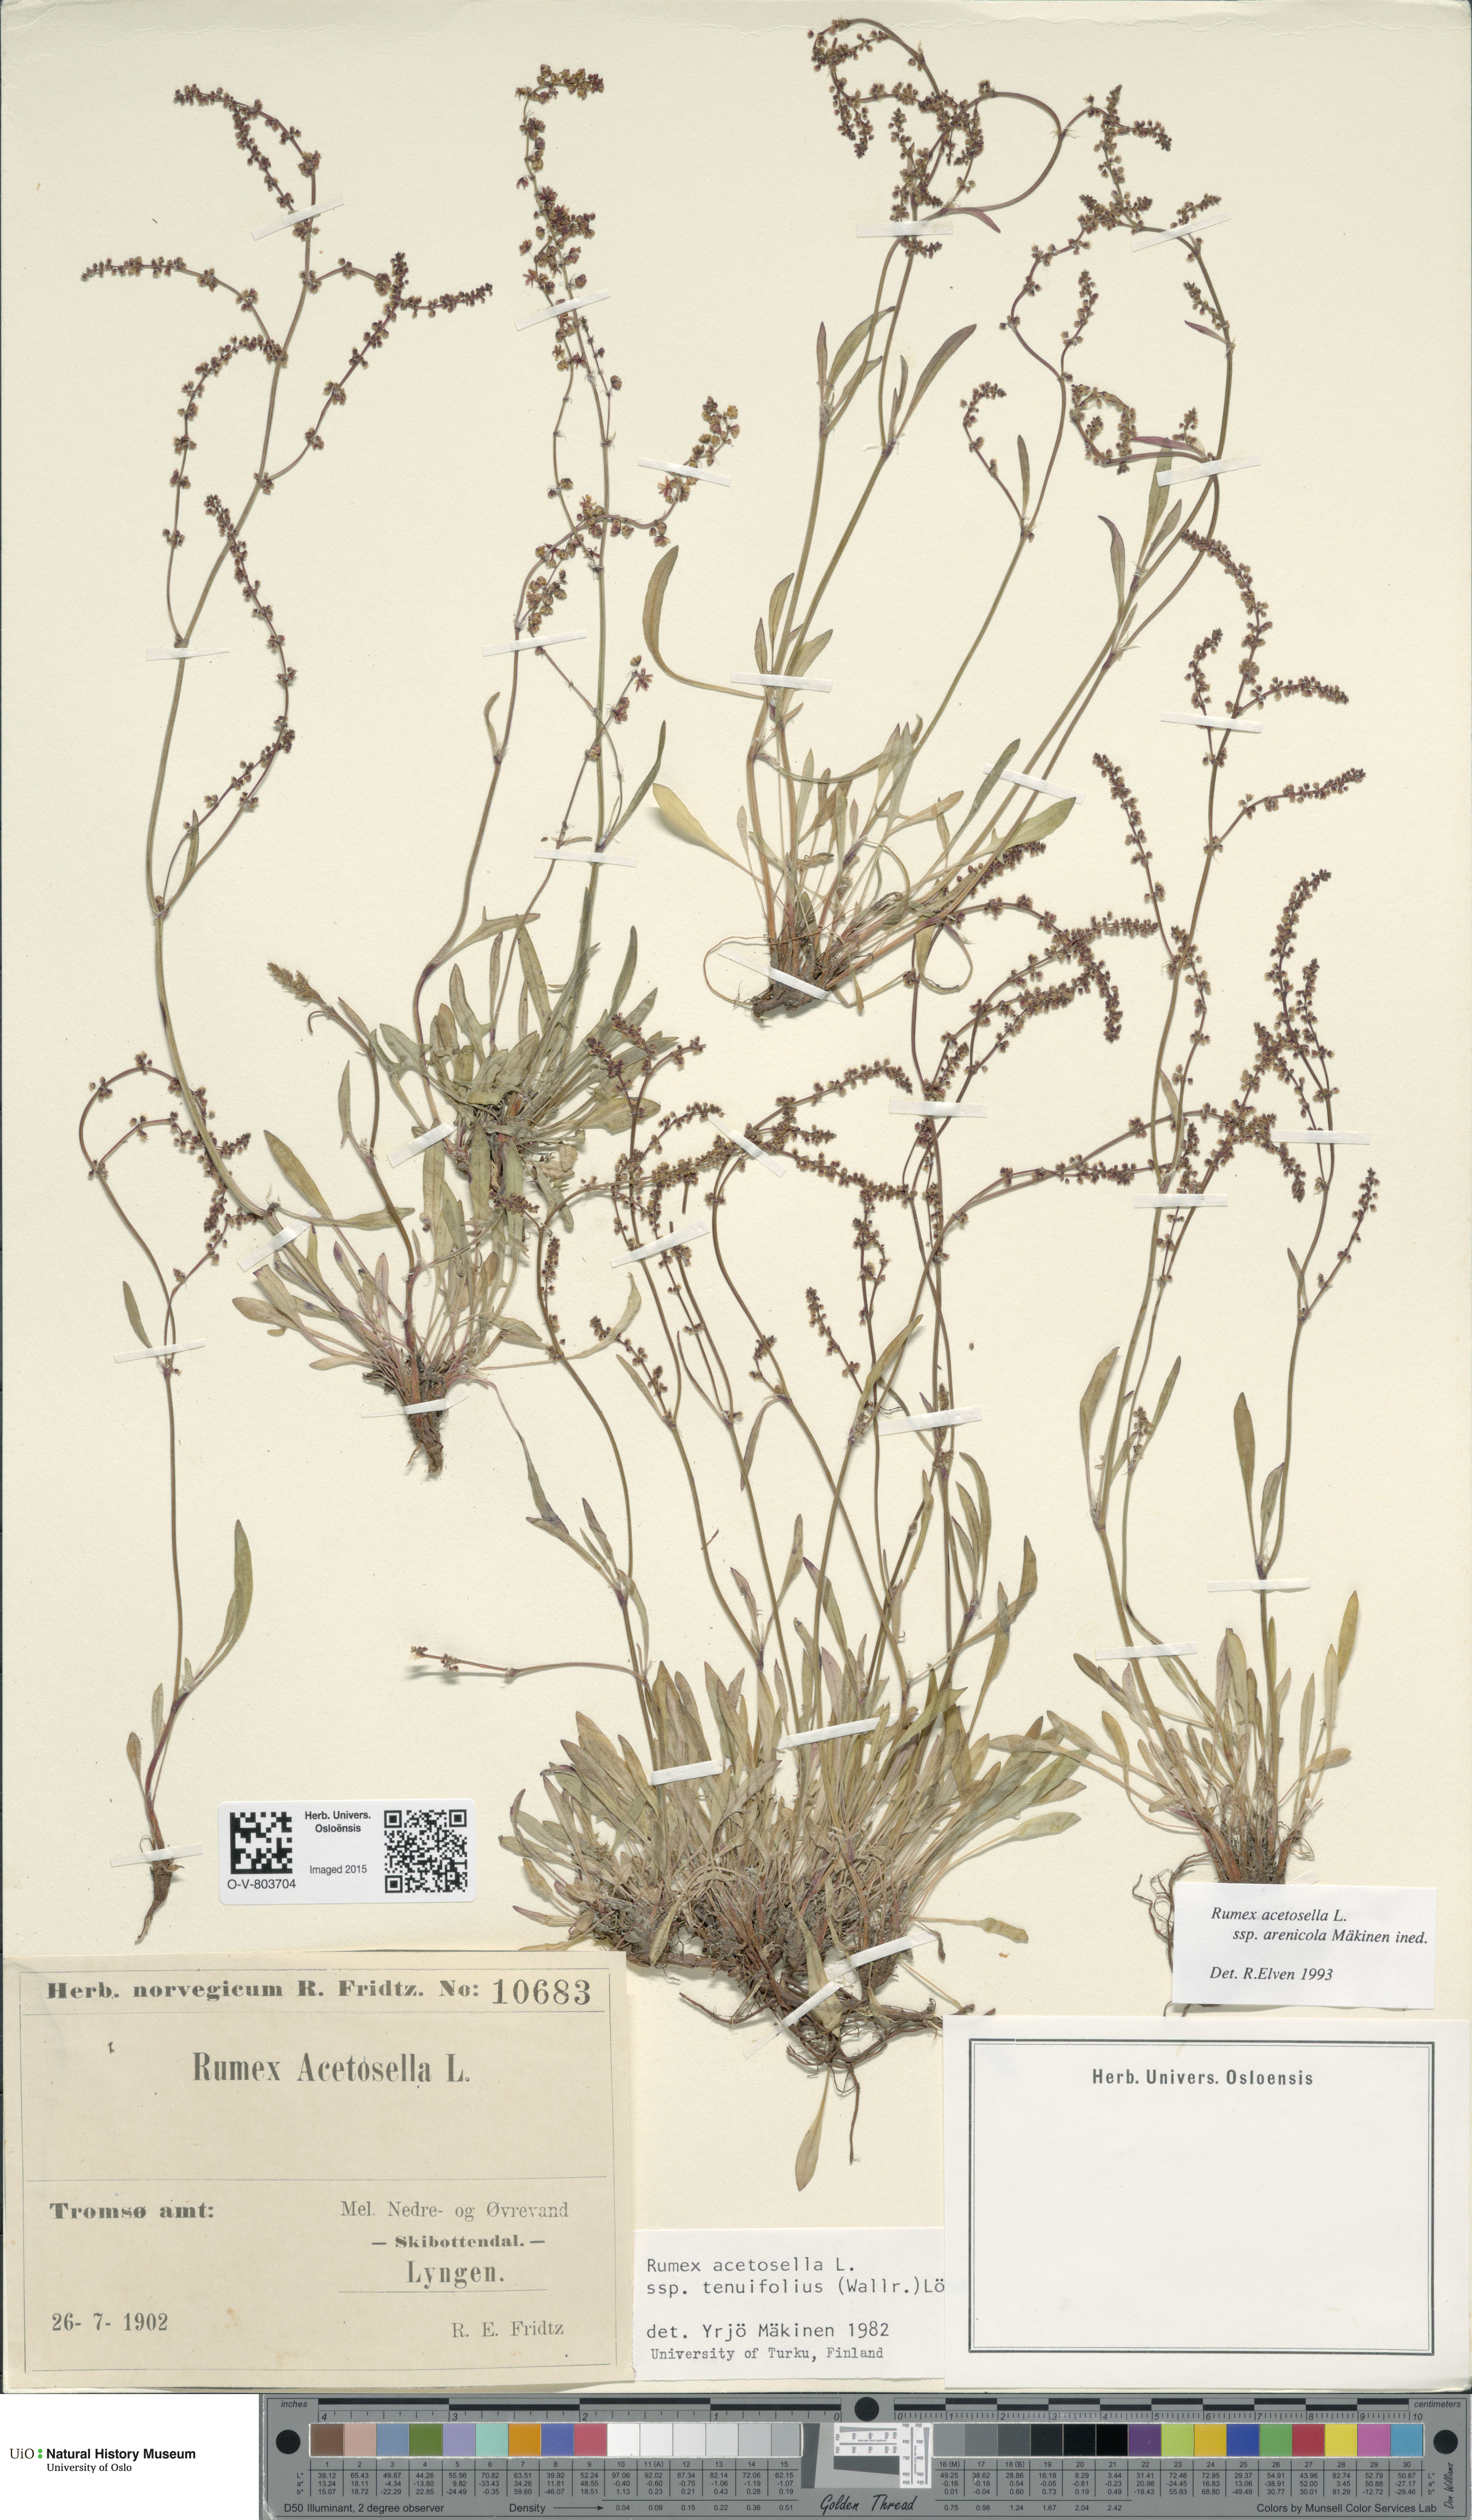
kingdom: Plantae
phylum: Tracheophyta
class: Magnoliopsida
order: Caryophyllales
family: Polygonaceae
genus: Rumex
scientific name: Rumex acetosella
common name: Common sheep sorrel
